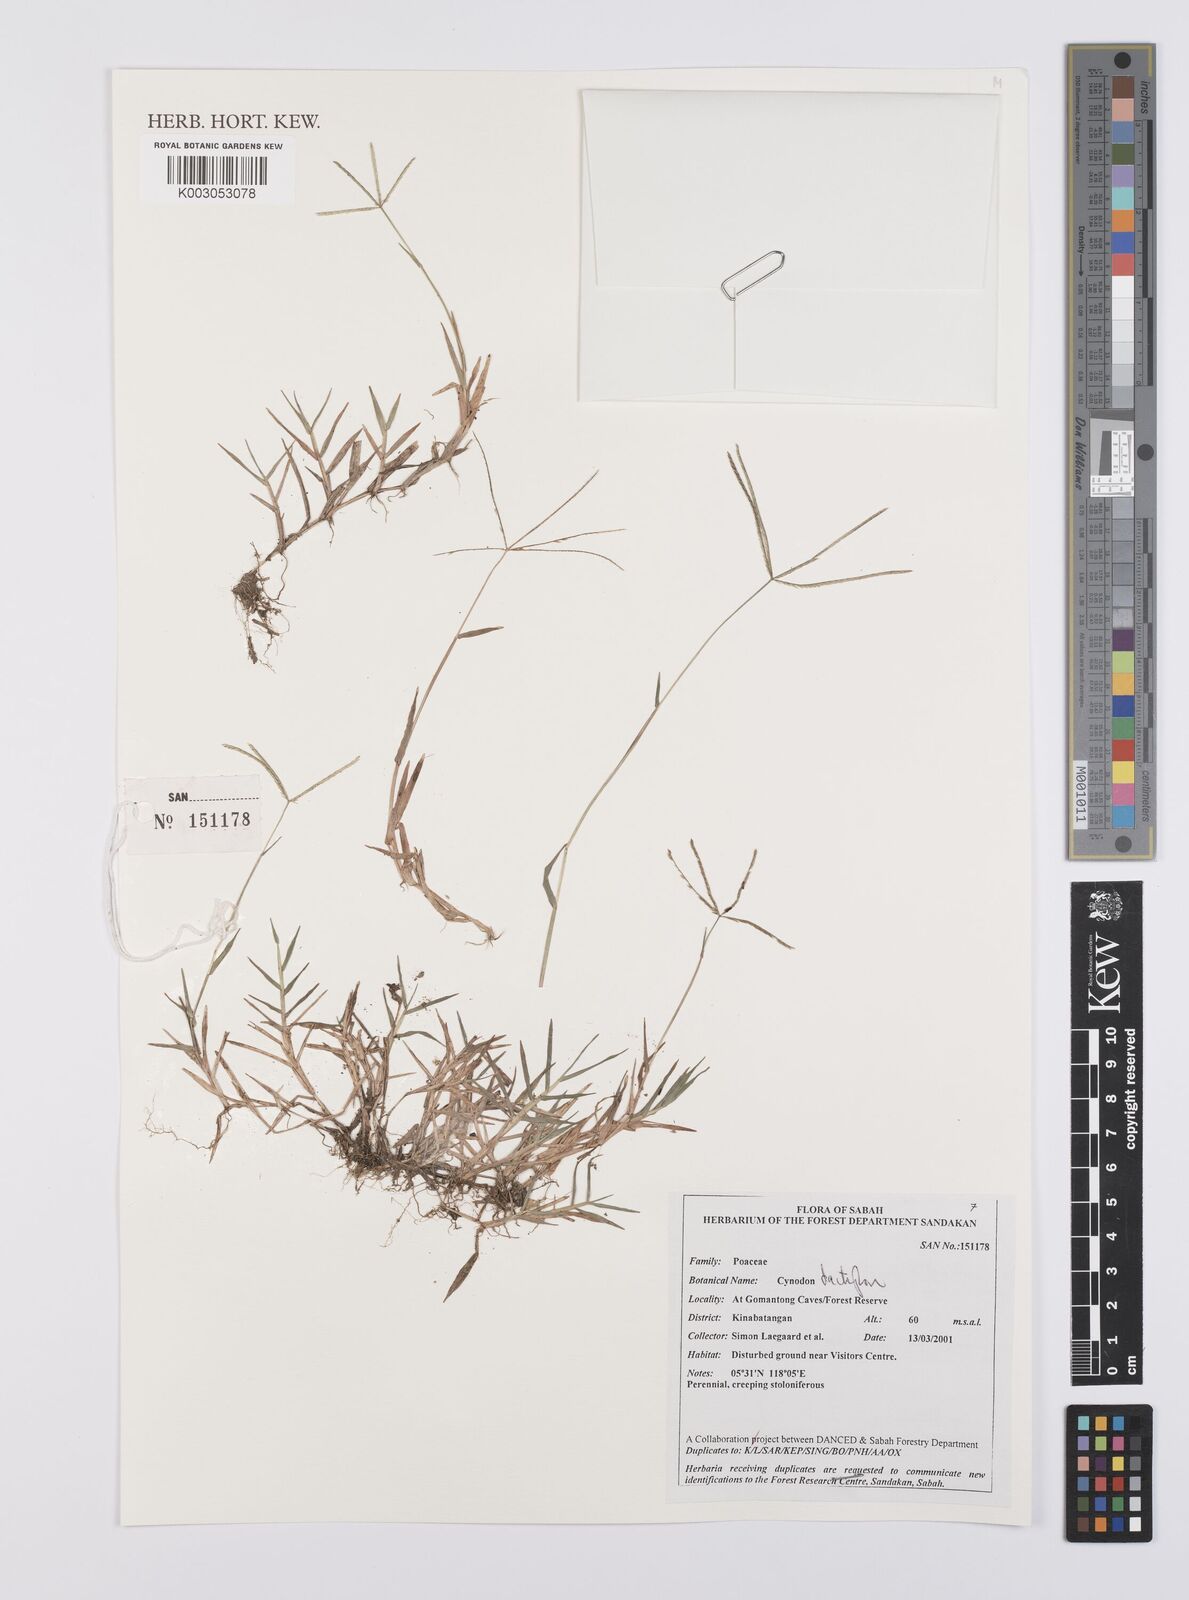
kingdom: Plantae
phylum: Tracheophyta
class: Liliopsida
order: Poales
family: Poaceae
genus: Cynodon
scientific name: Cynodon dactylon
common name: Bermuda grass
